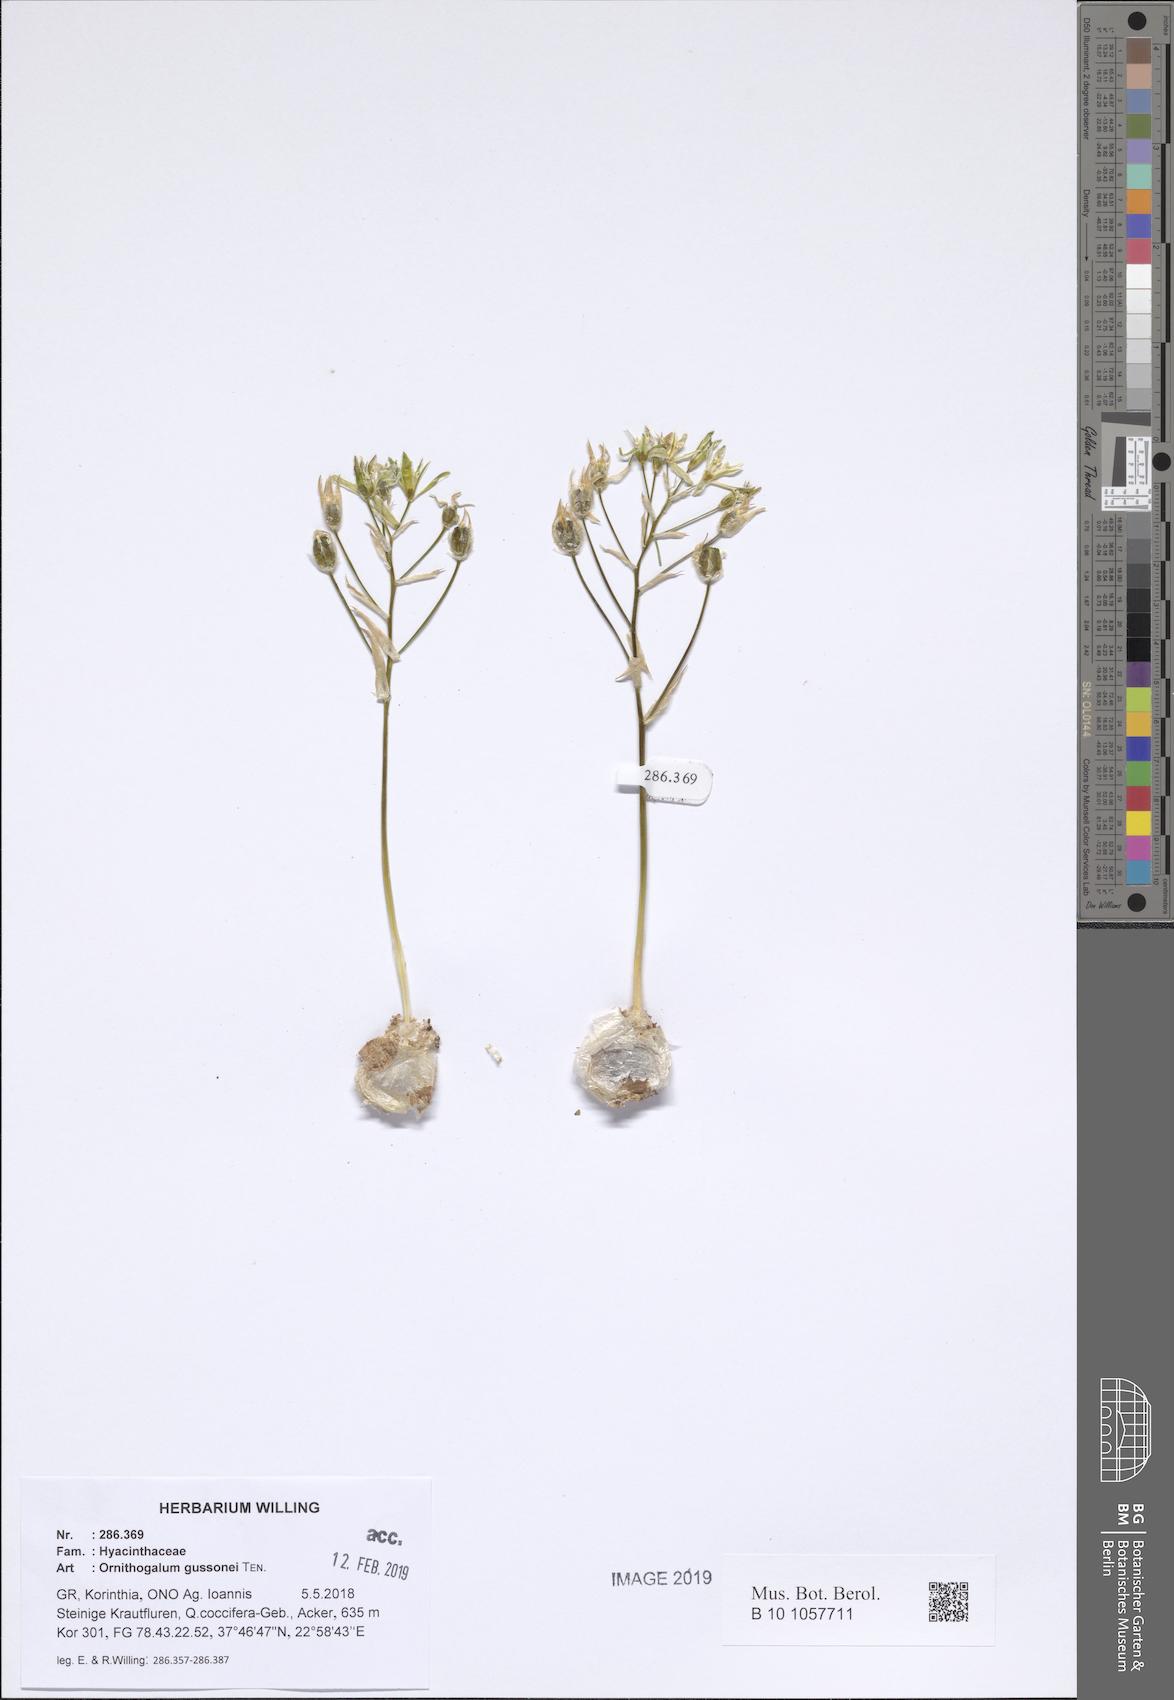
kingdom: Plantae
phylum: Tracheophyta
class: Liliopsida
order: Asparagales
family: Asparagaceae
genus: Ornithogalum
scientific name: Ornithogalum gussonei
